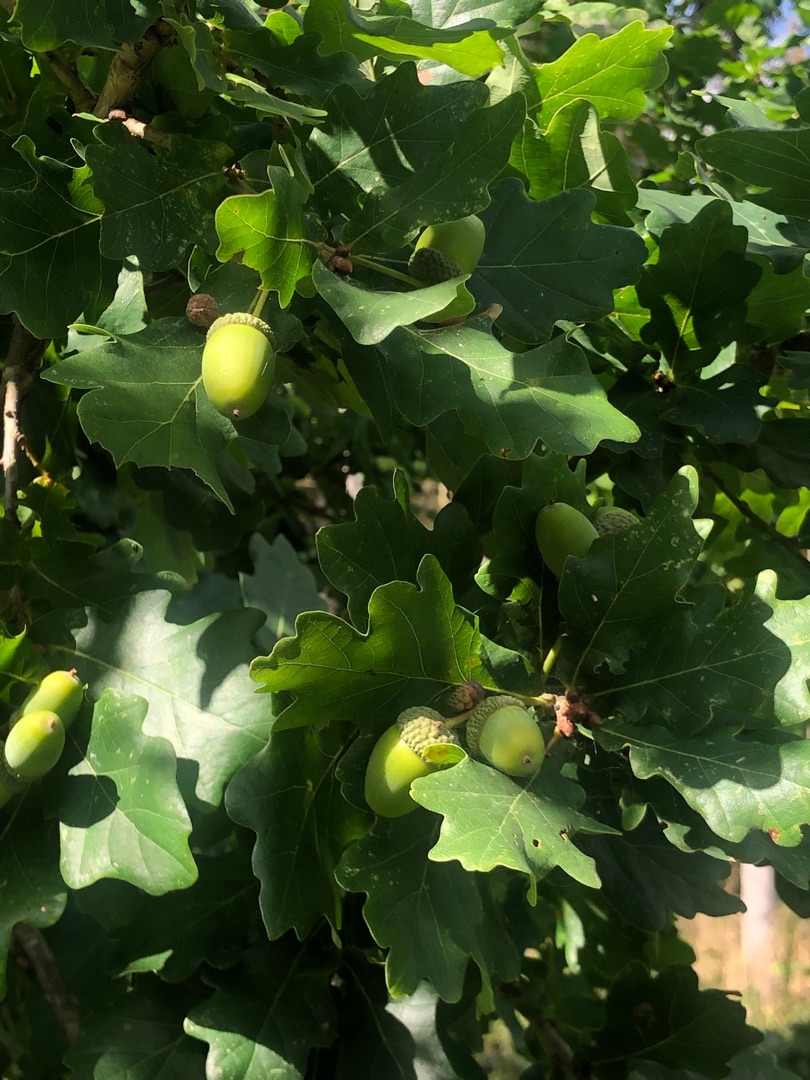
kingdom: Plantae
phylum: Tracheophyta
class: Magnoliopsida
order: Fagales
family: Fagaceae
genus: Quercus
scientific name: Quercus robur
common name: Stilk-eg/almindelig eg
